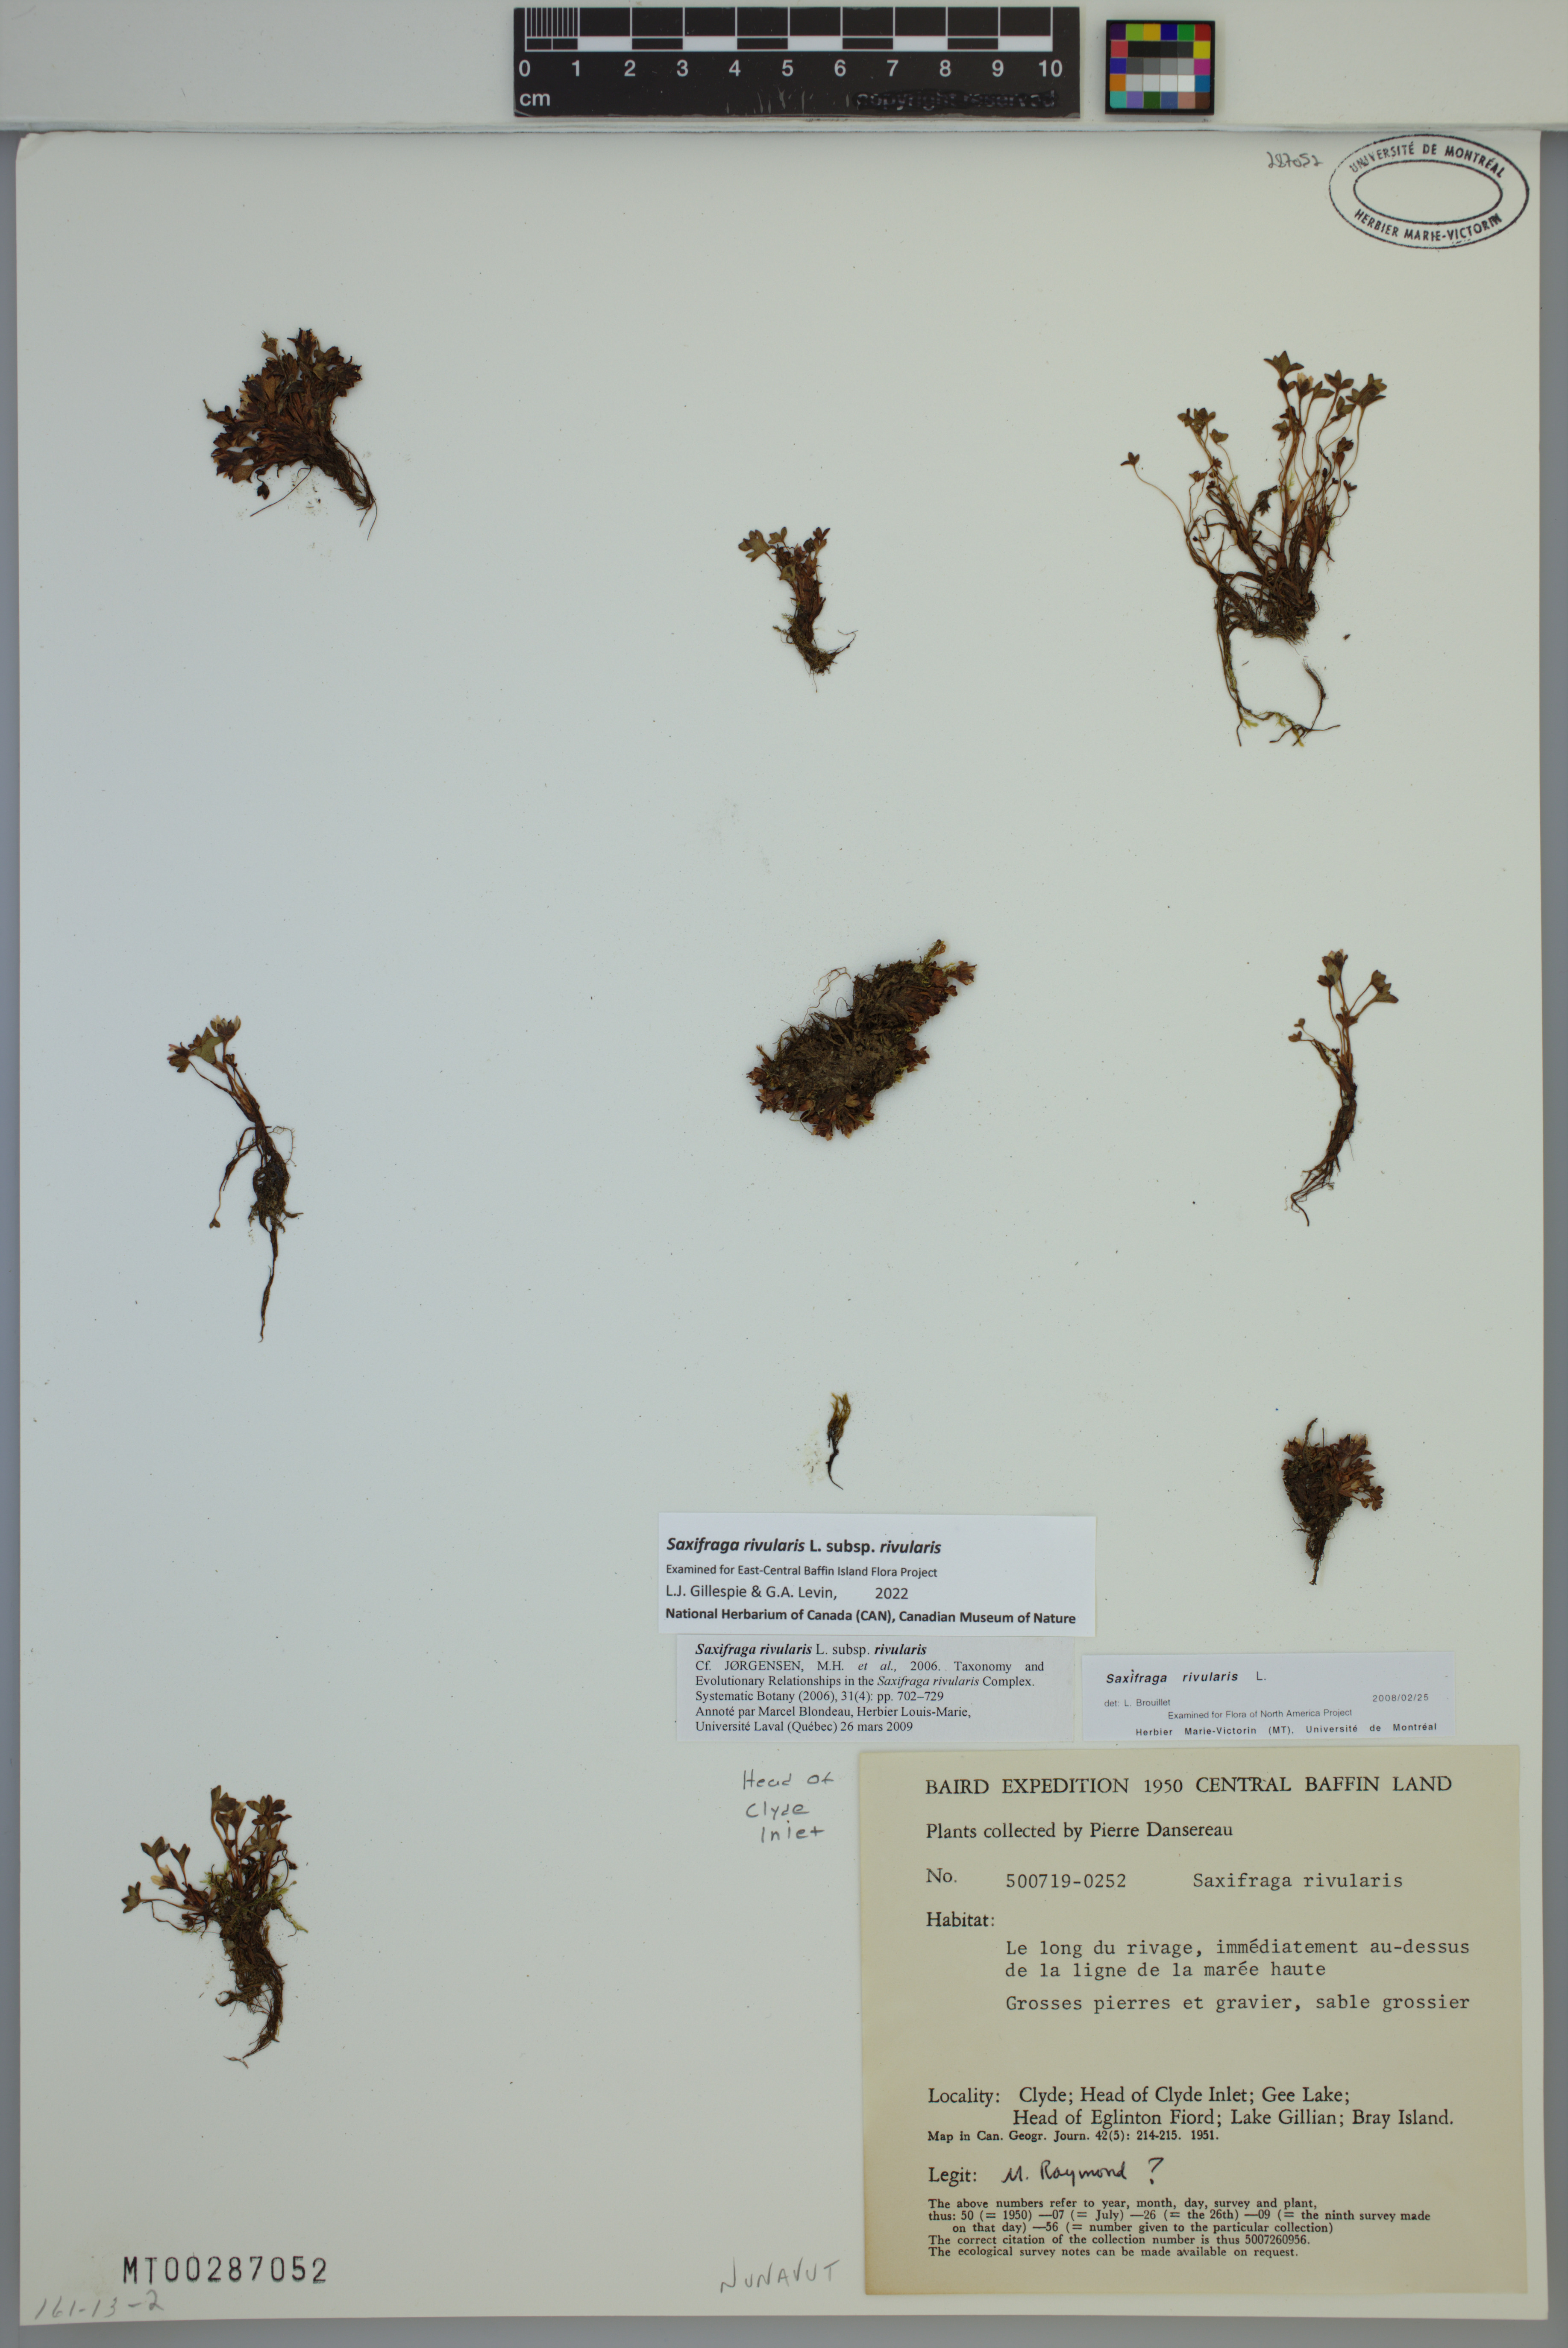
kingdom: Plantae
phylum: Tracheophyta
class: Magnoliopsida
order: Saxifragales
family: Saxifragaceae
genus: Saxifraga
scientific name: Saxifraga rivularis
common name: Highland saxifrage
